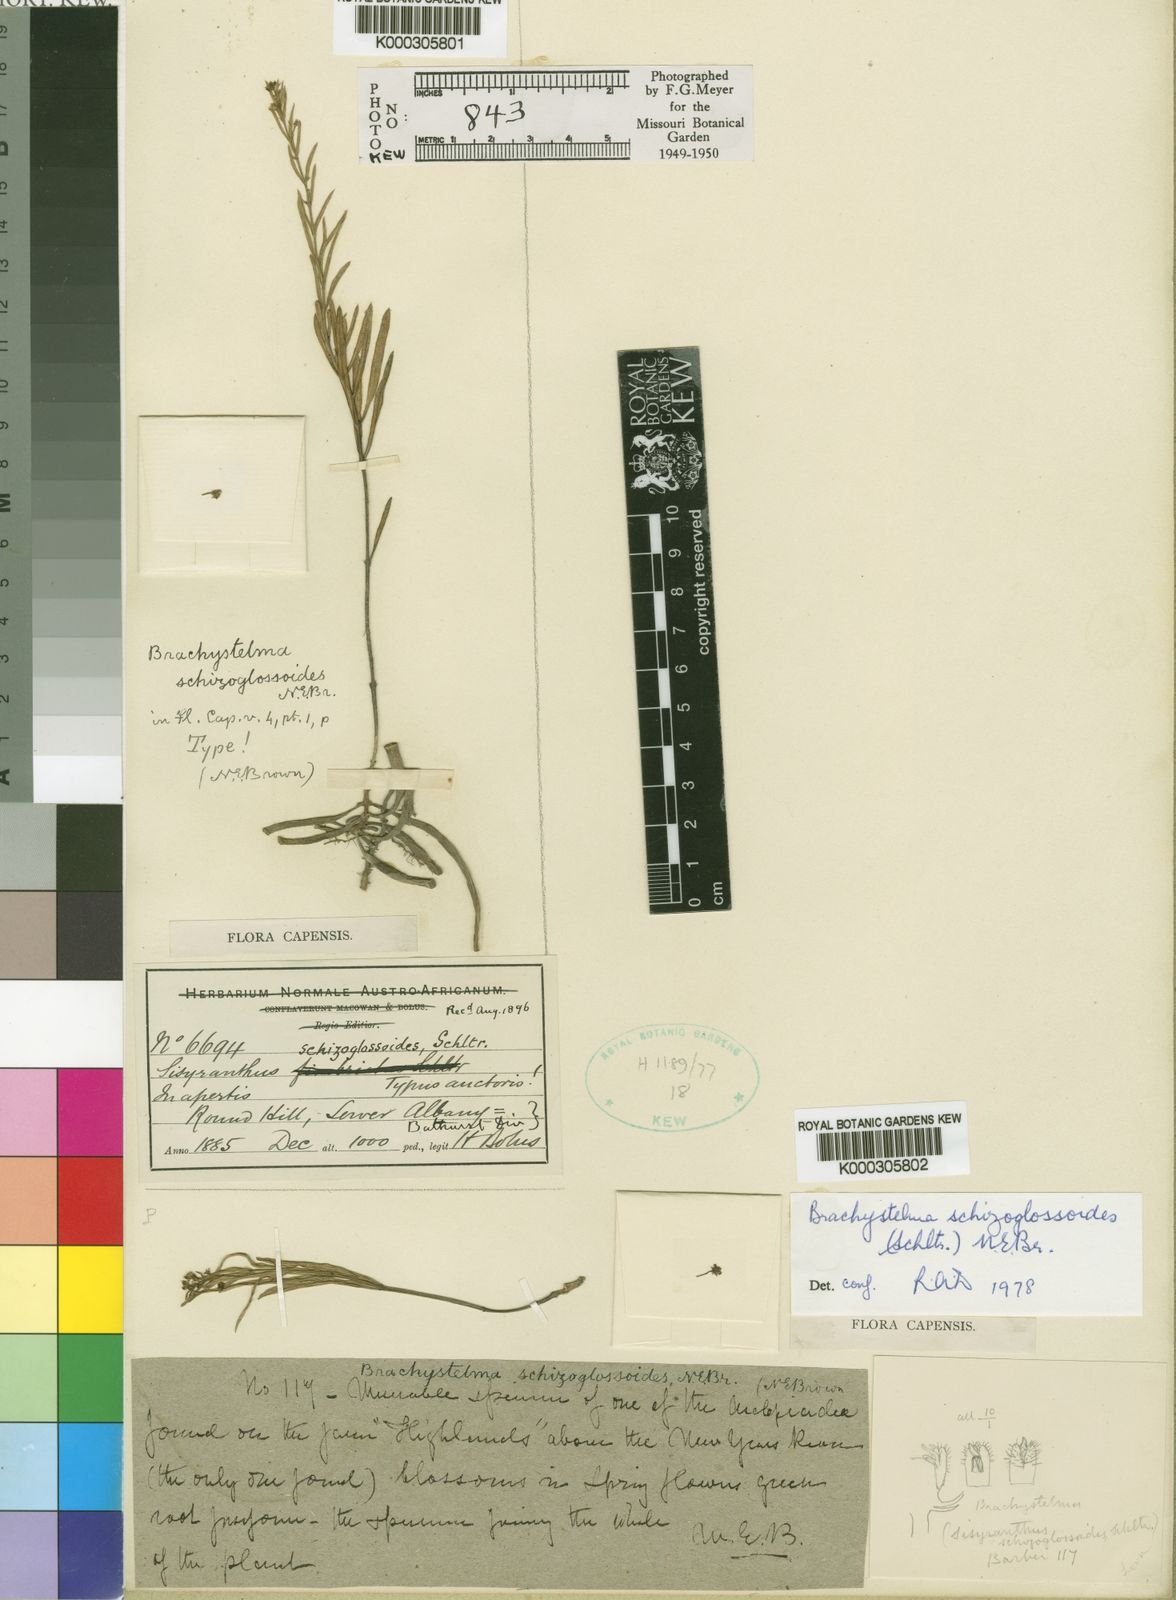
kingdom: Plantae
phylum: Tracheophyta
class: Magnoliopsida
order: Gentianales
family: Apocynaceae
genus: Ceropegia
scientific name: Ceropegia schizoglossoides
